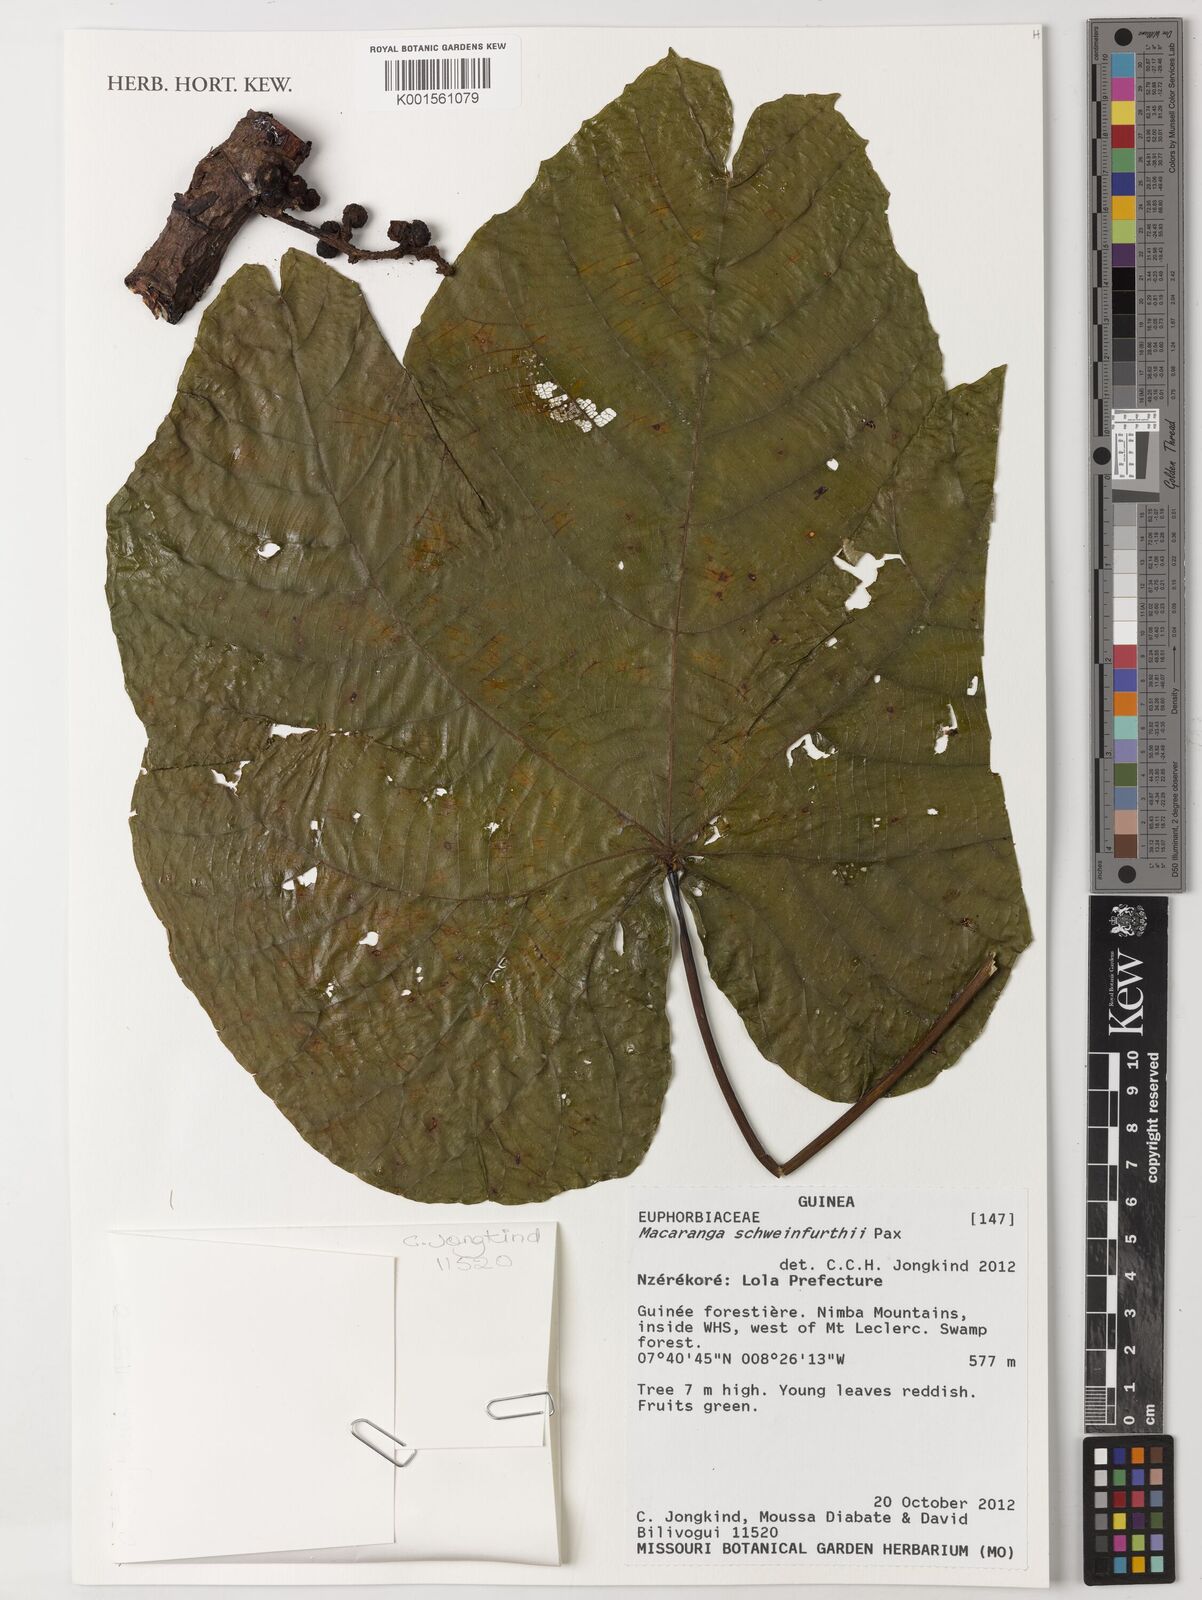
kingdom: Plantae
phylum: Tracheophyta
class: Magnoliopsida
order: Malpighiales
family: Euphorbiaceae
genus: Macaranga
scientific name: Macaranga schweinfurthii
